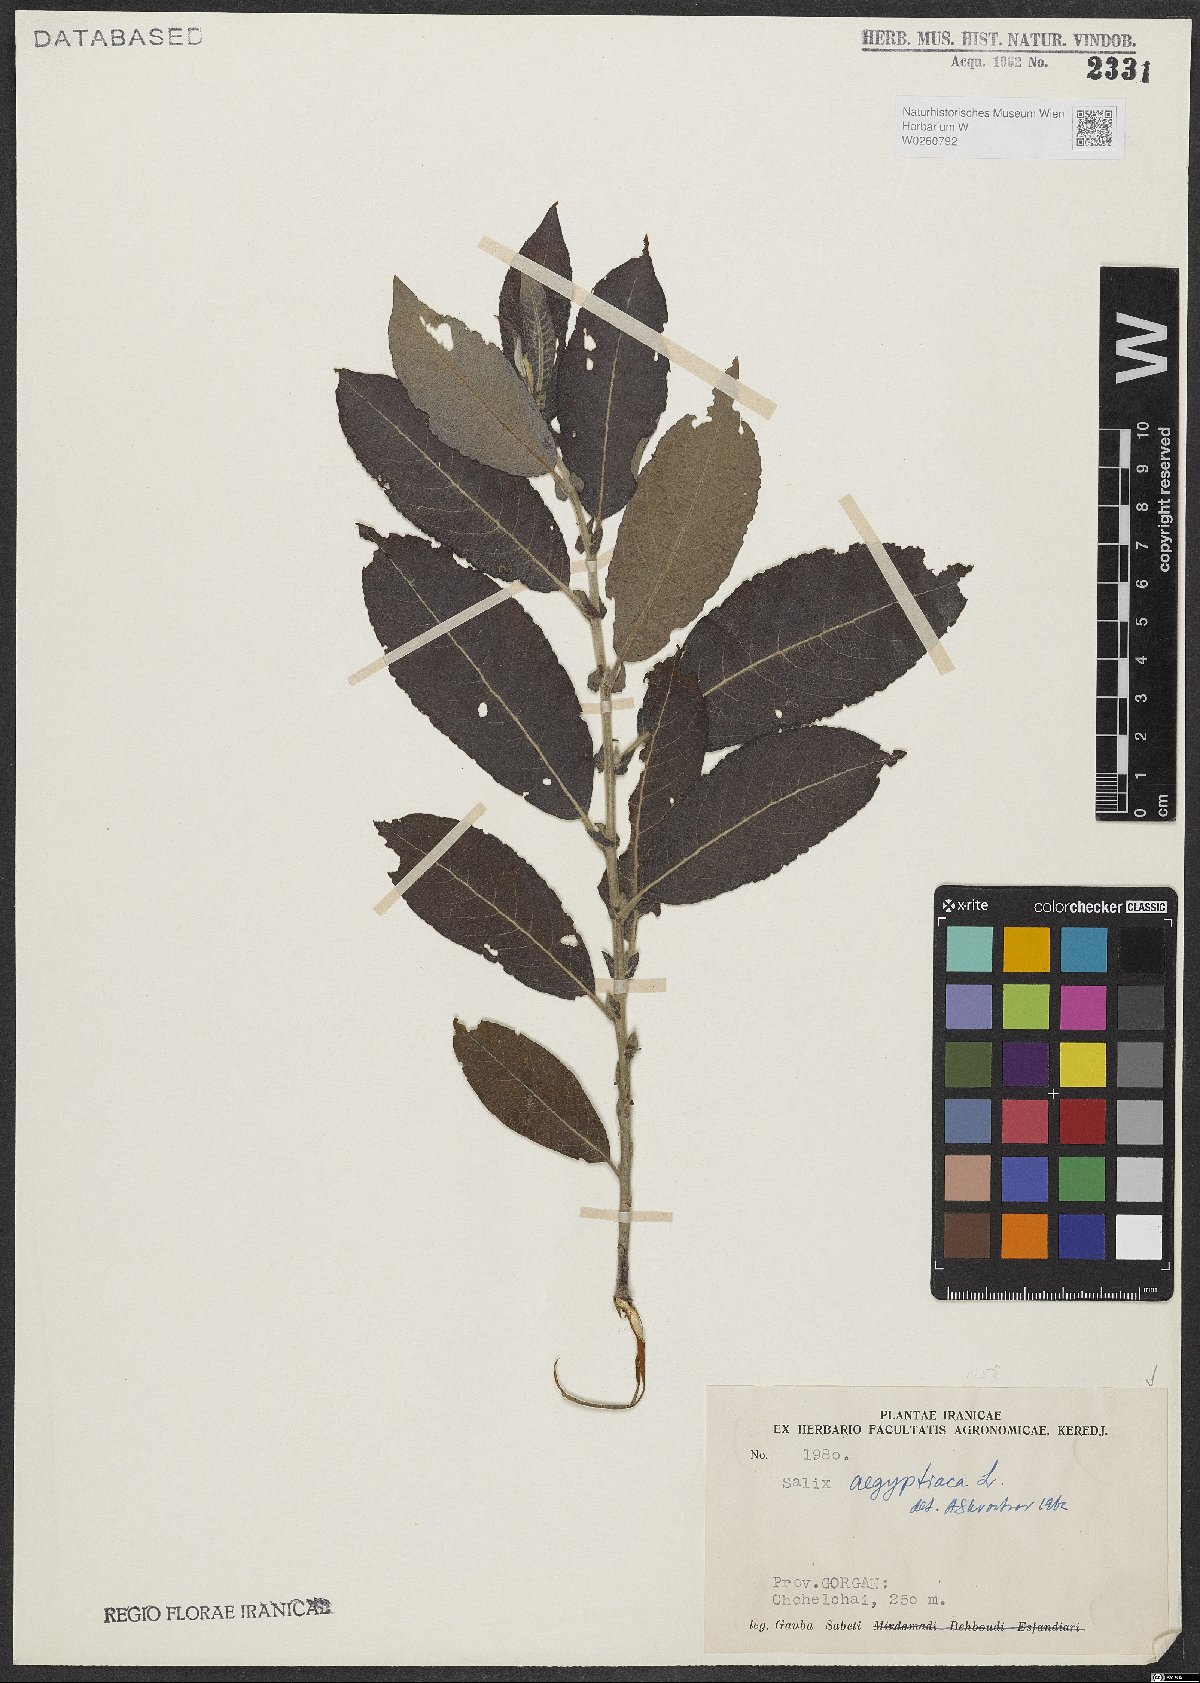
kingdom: Plantae
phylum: Tracheophyta
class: Magnoliopsida
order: Malpighiales
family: Salicaceae
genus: Salix
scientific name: Salix aegyptiaca
